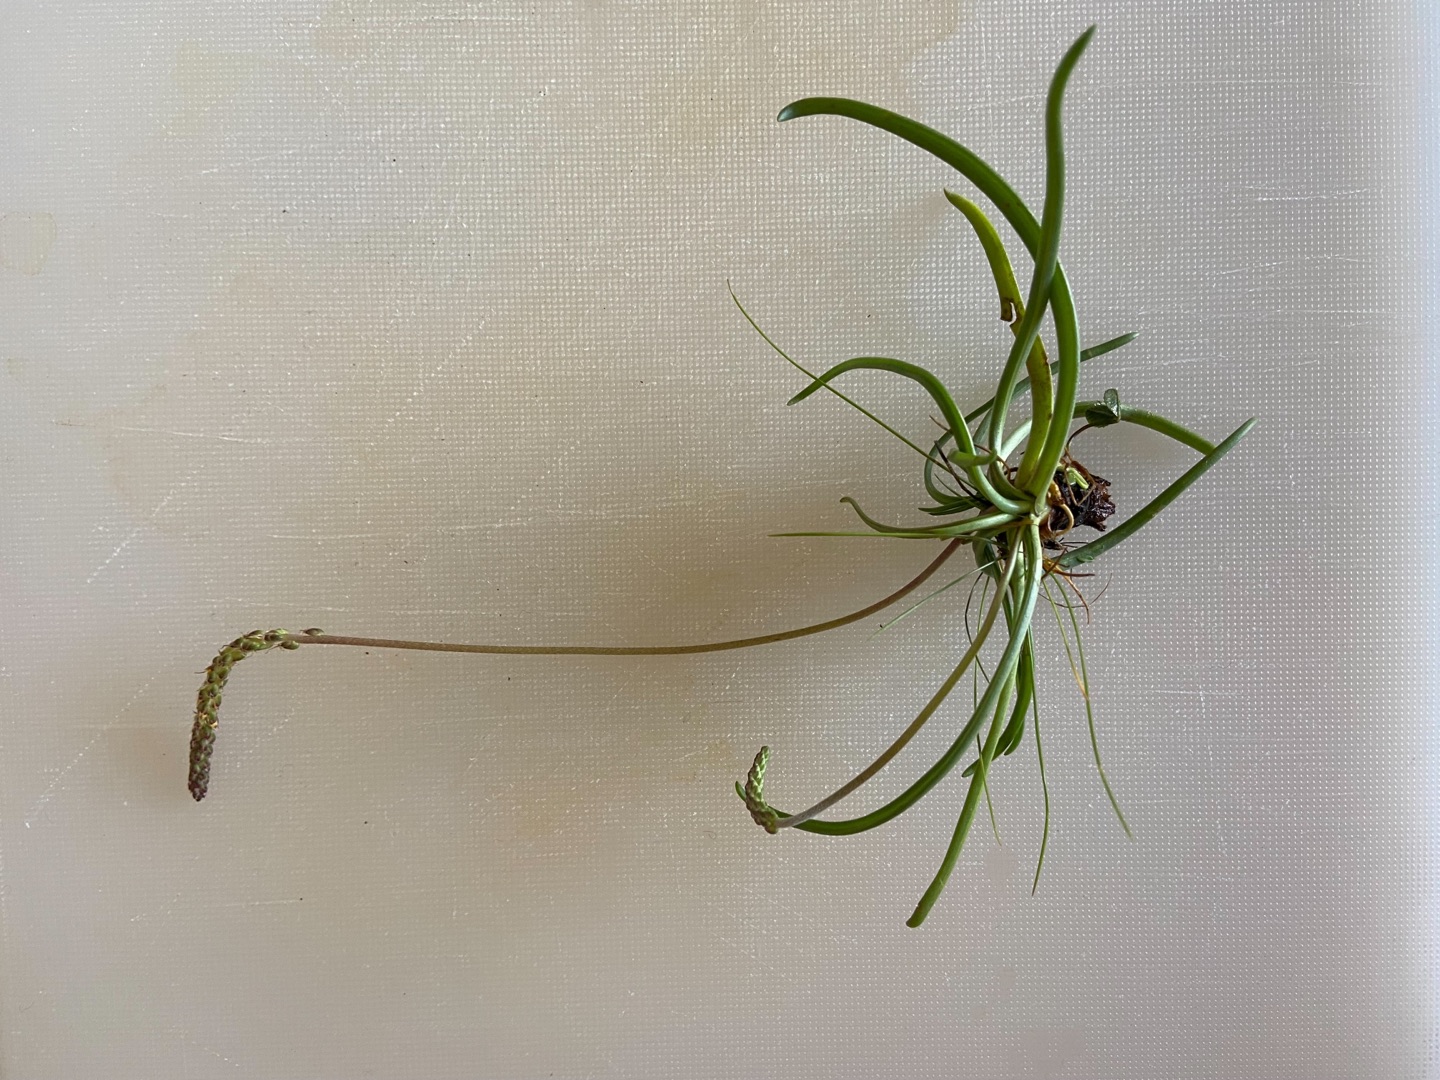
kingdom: Plantae
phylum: Tracheophyta
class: Magnoliopsida
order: Lamiales
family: Plantaginaceae
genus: Plantago
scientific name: Plantago maritima
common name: Strand-vejbred
